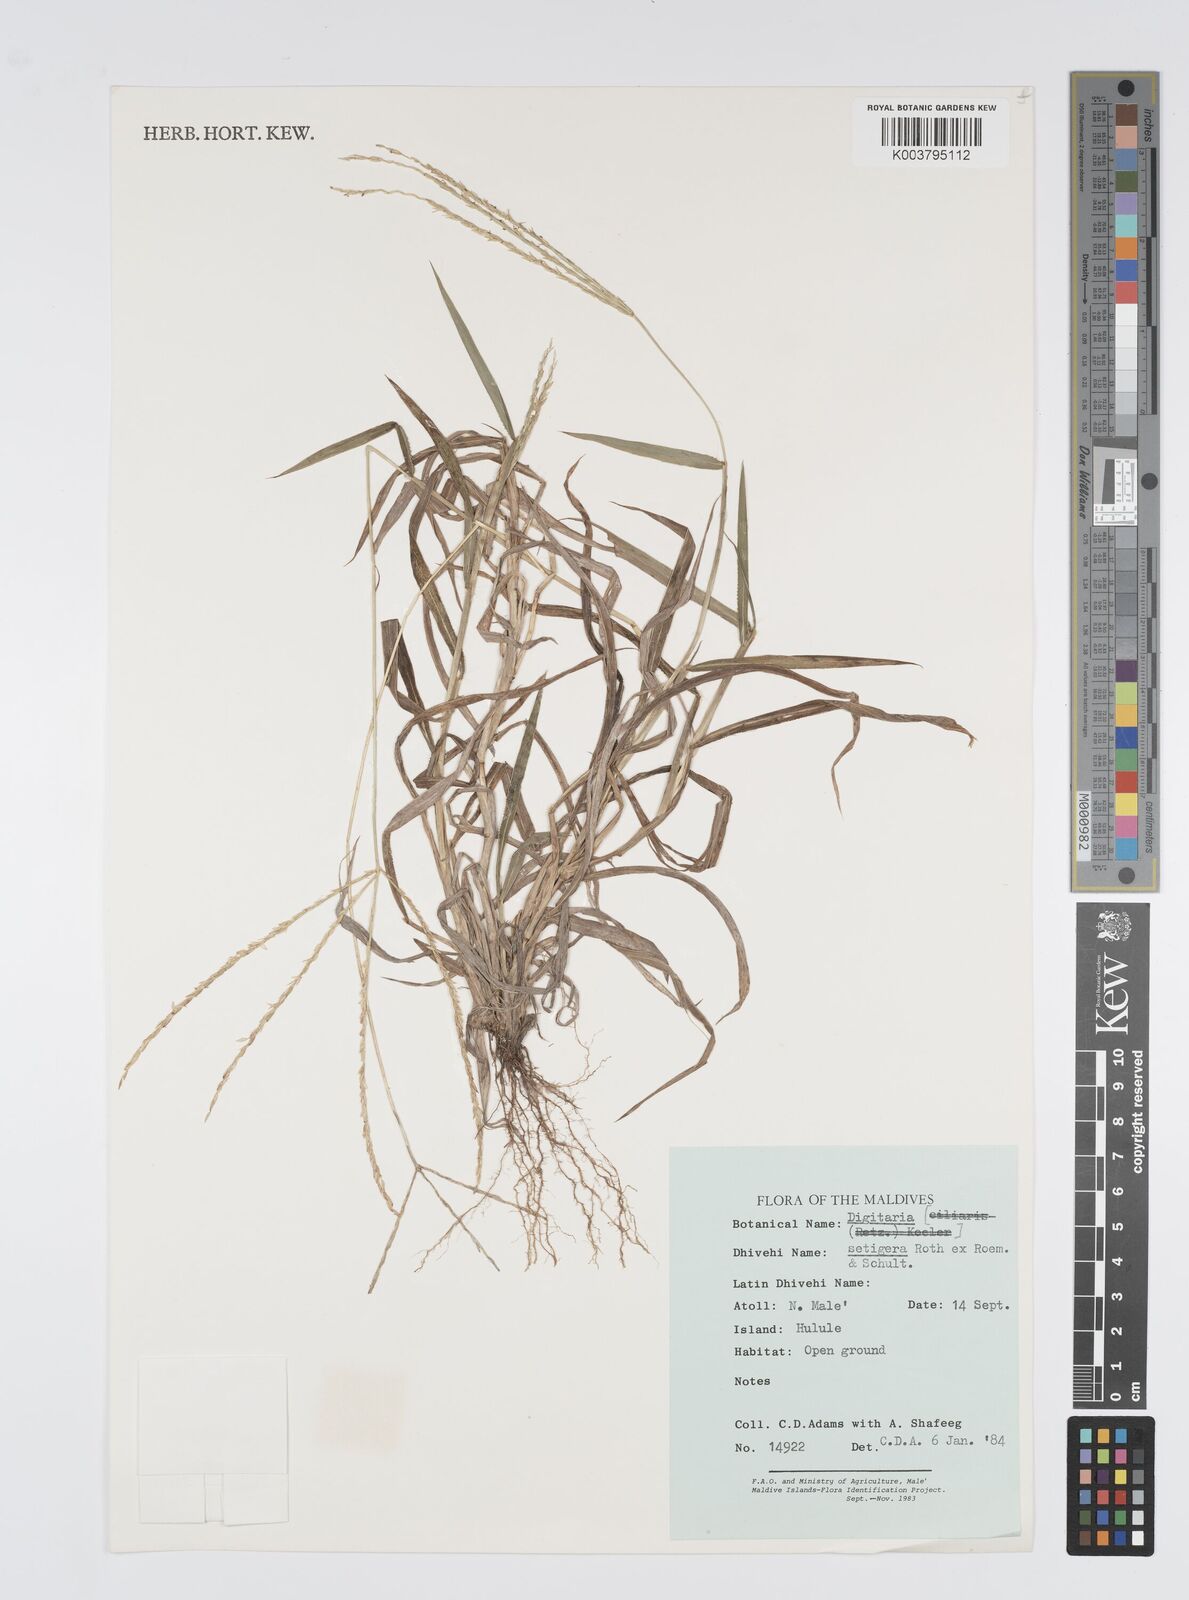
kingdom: Plantae
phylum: Tracheophyta
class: Liliopsida
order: Poales
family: Poaceae
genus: Digitaria
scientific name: Digitaria setigera
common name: East indian crabgrass
